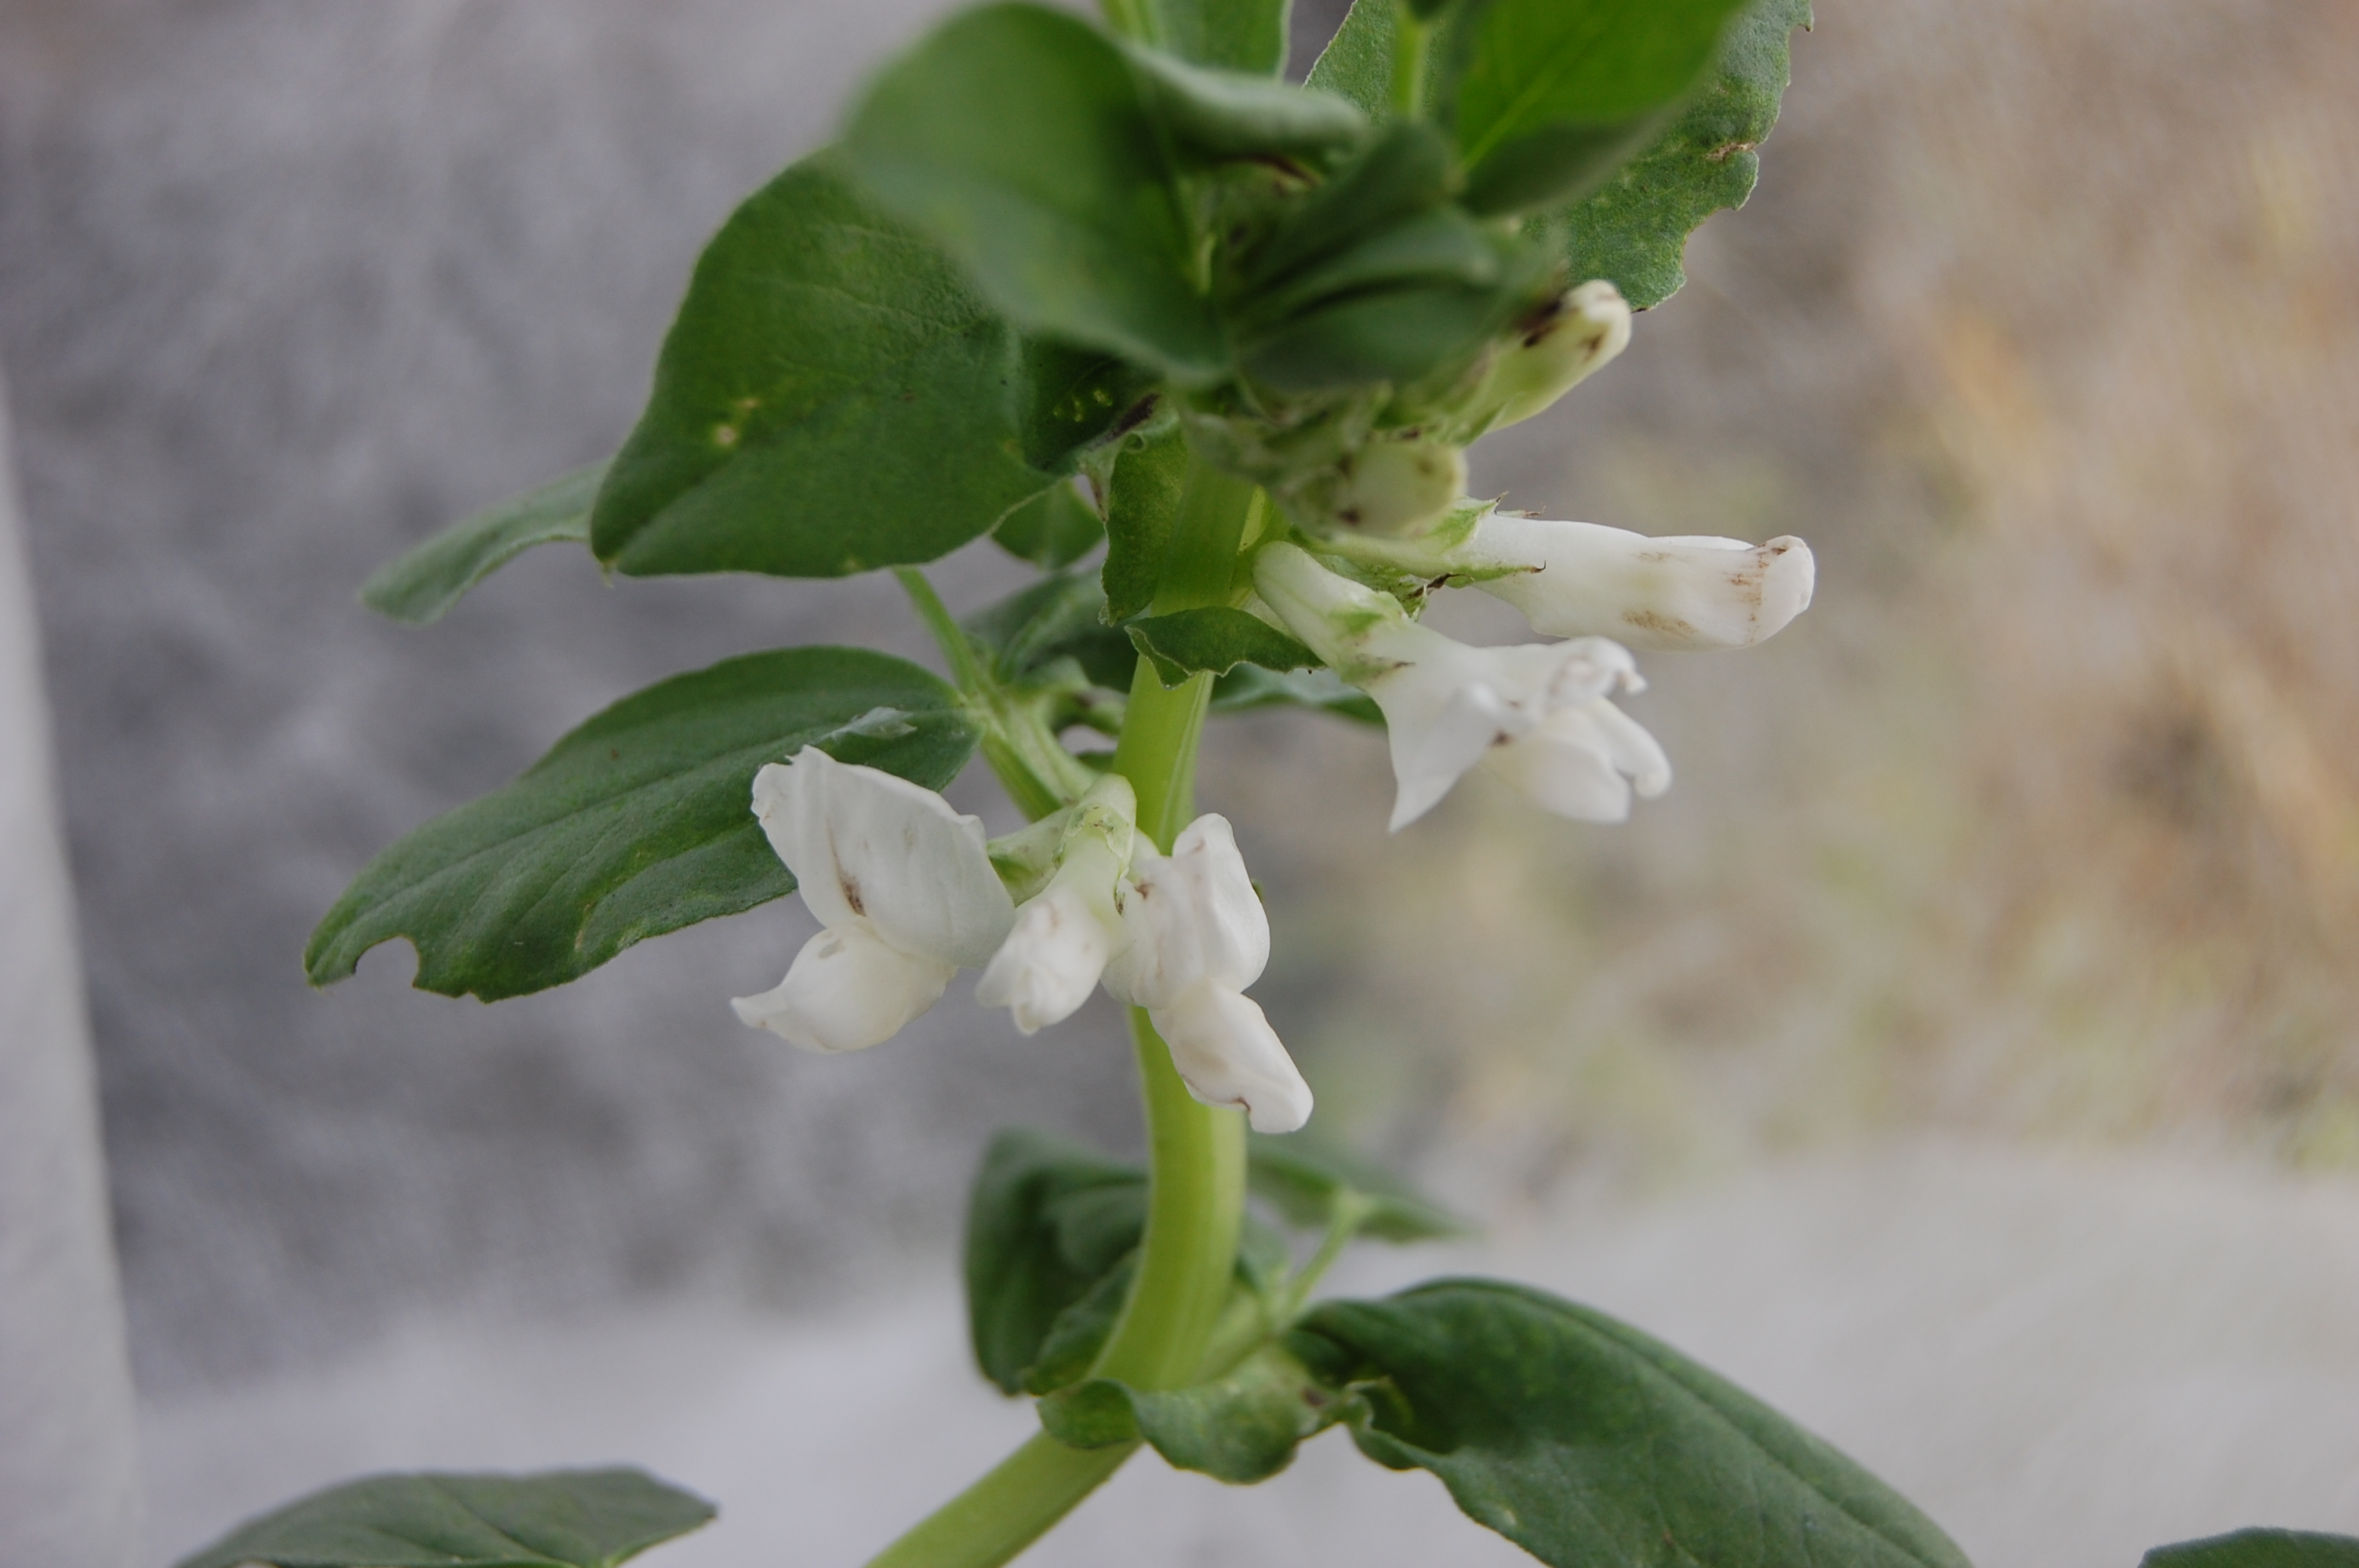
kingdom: Plantae
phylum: Tracheophyta
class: Magnoliopsida
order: Fabales
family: Fabaceae
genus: Vicia
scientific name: Vicia faba
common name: Broad bean
